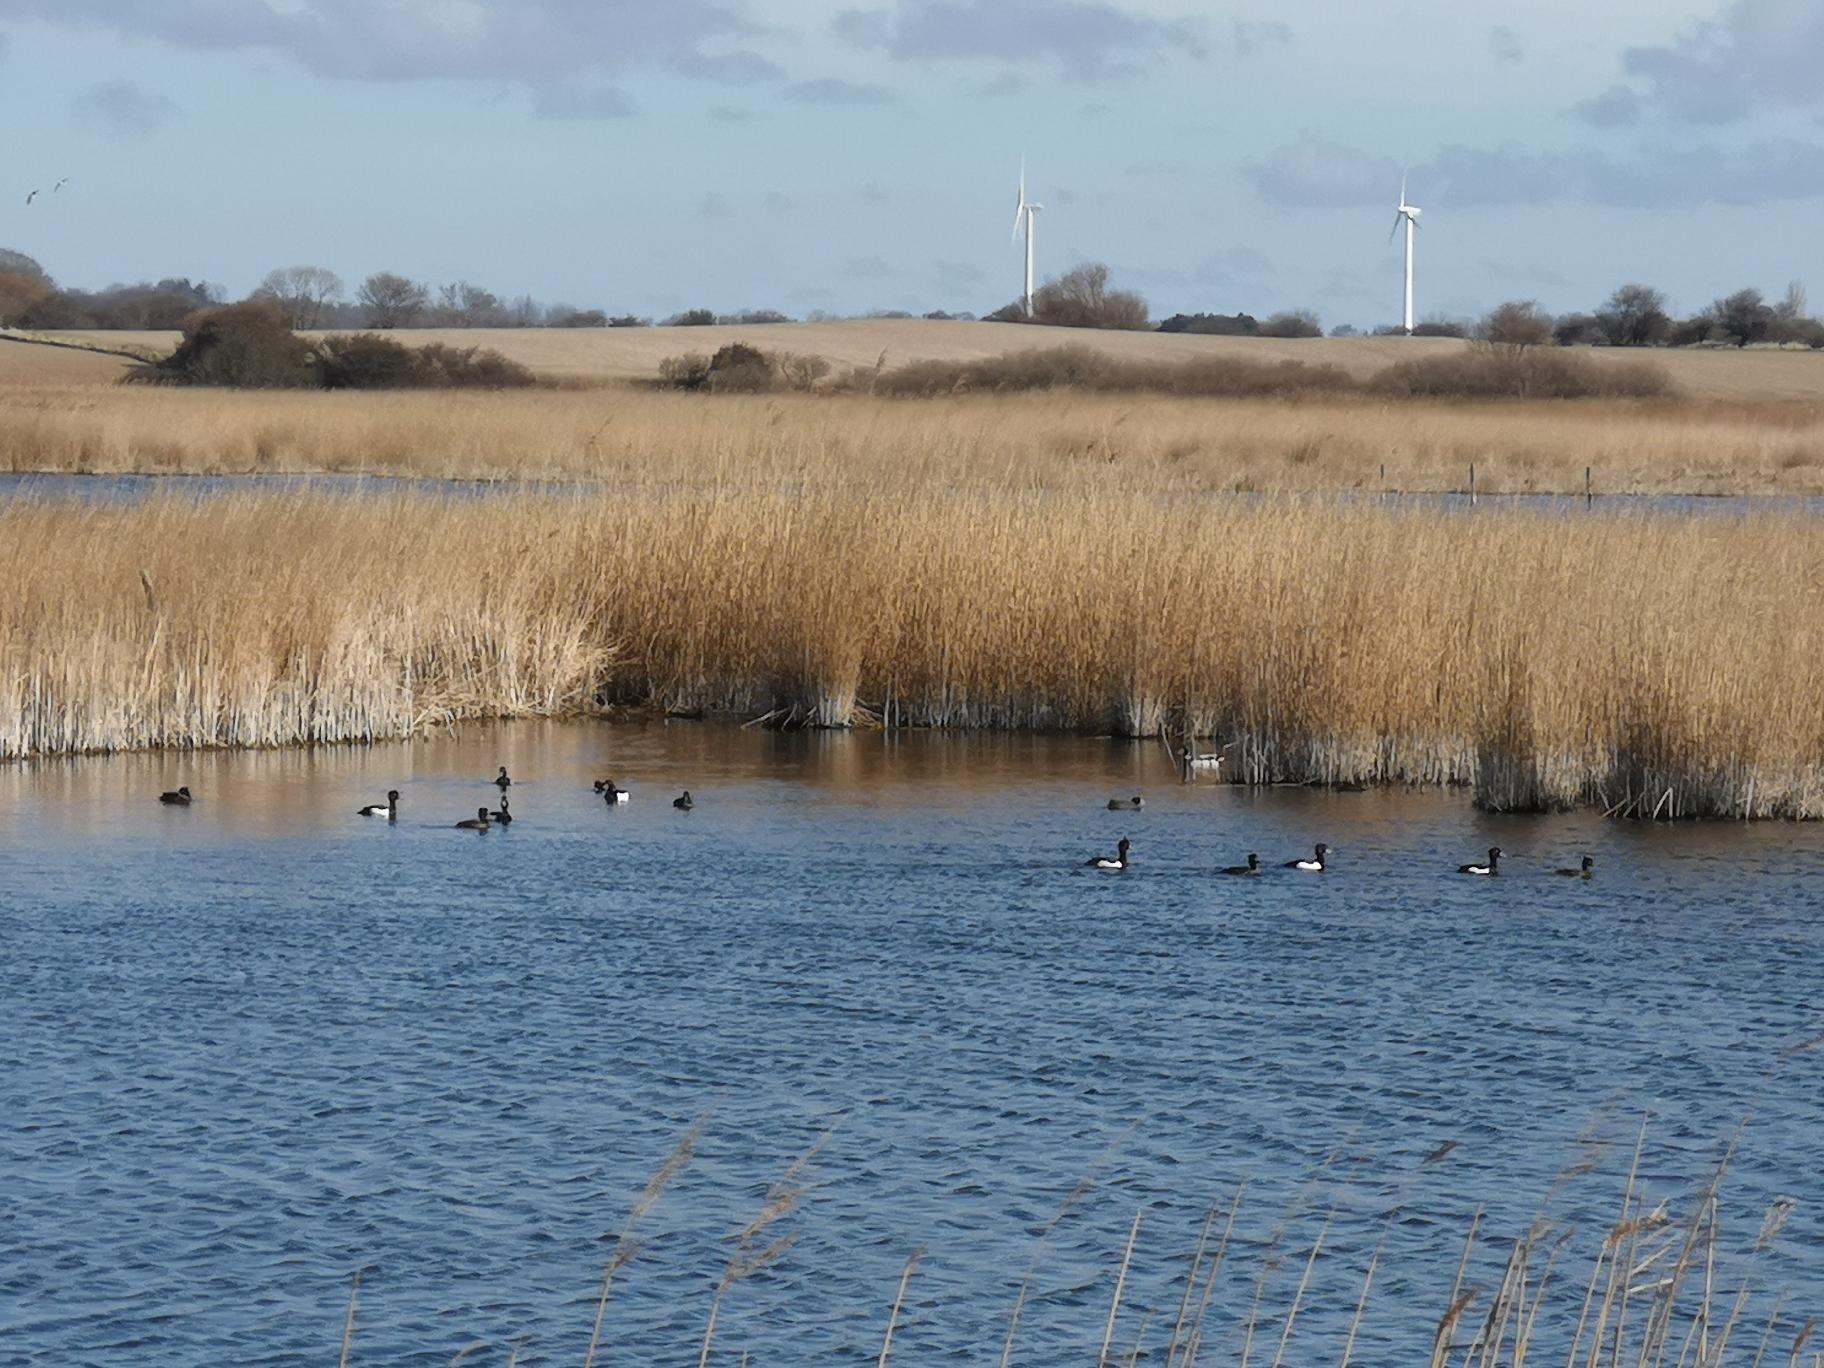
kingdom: Animalia
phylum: Chordata
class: Aves
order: Anseriformes
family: Anatidae
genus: Aythya
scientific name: Aythya fuligula
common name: Troldand
